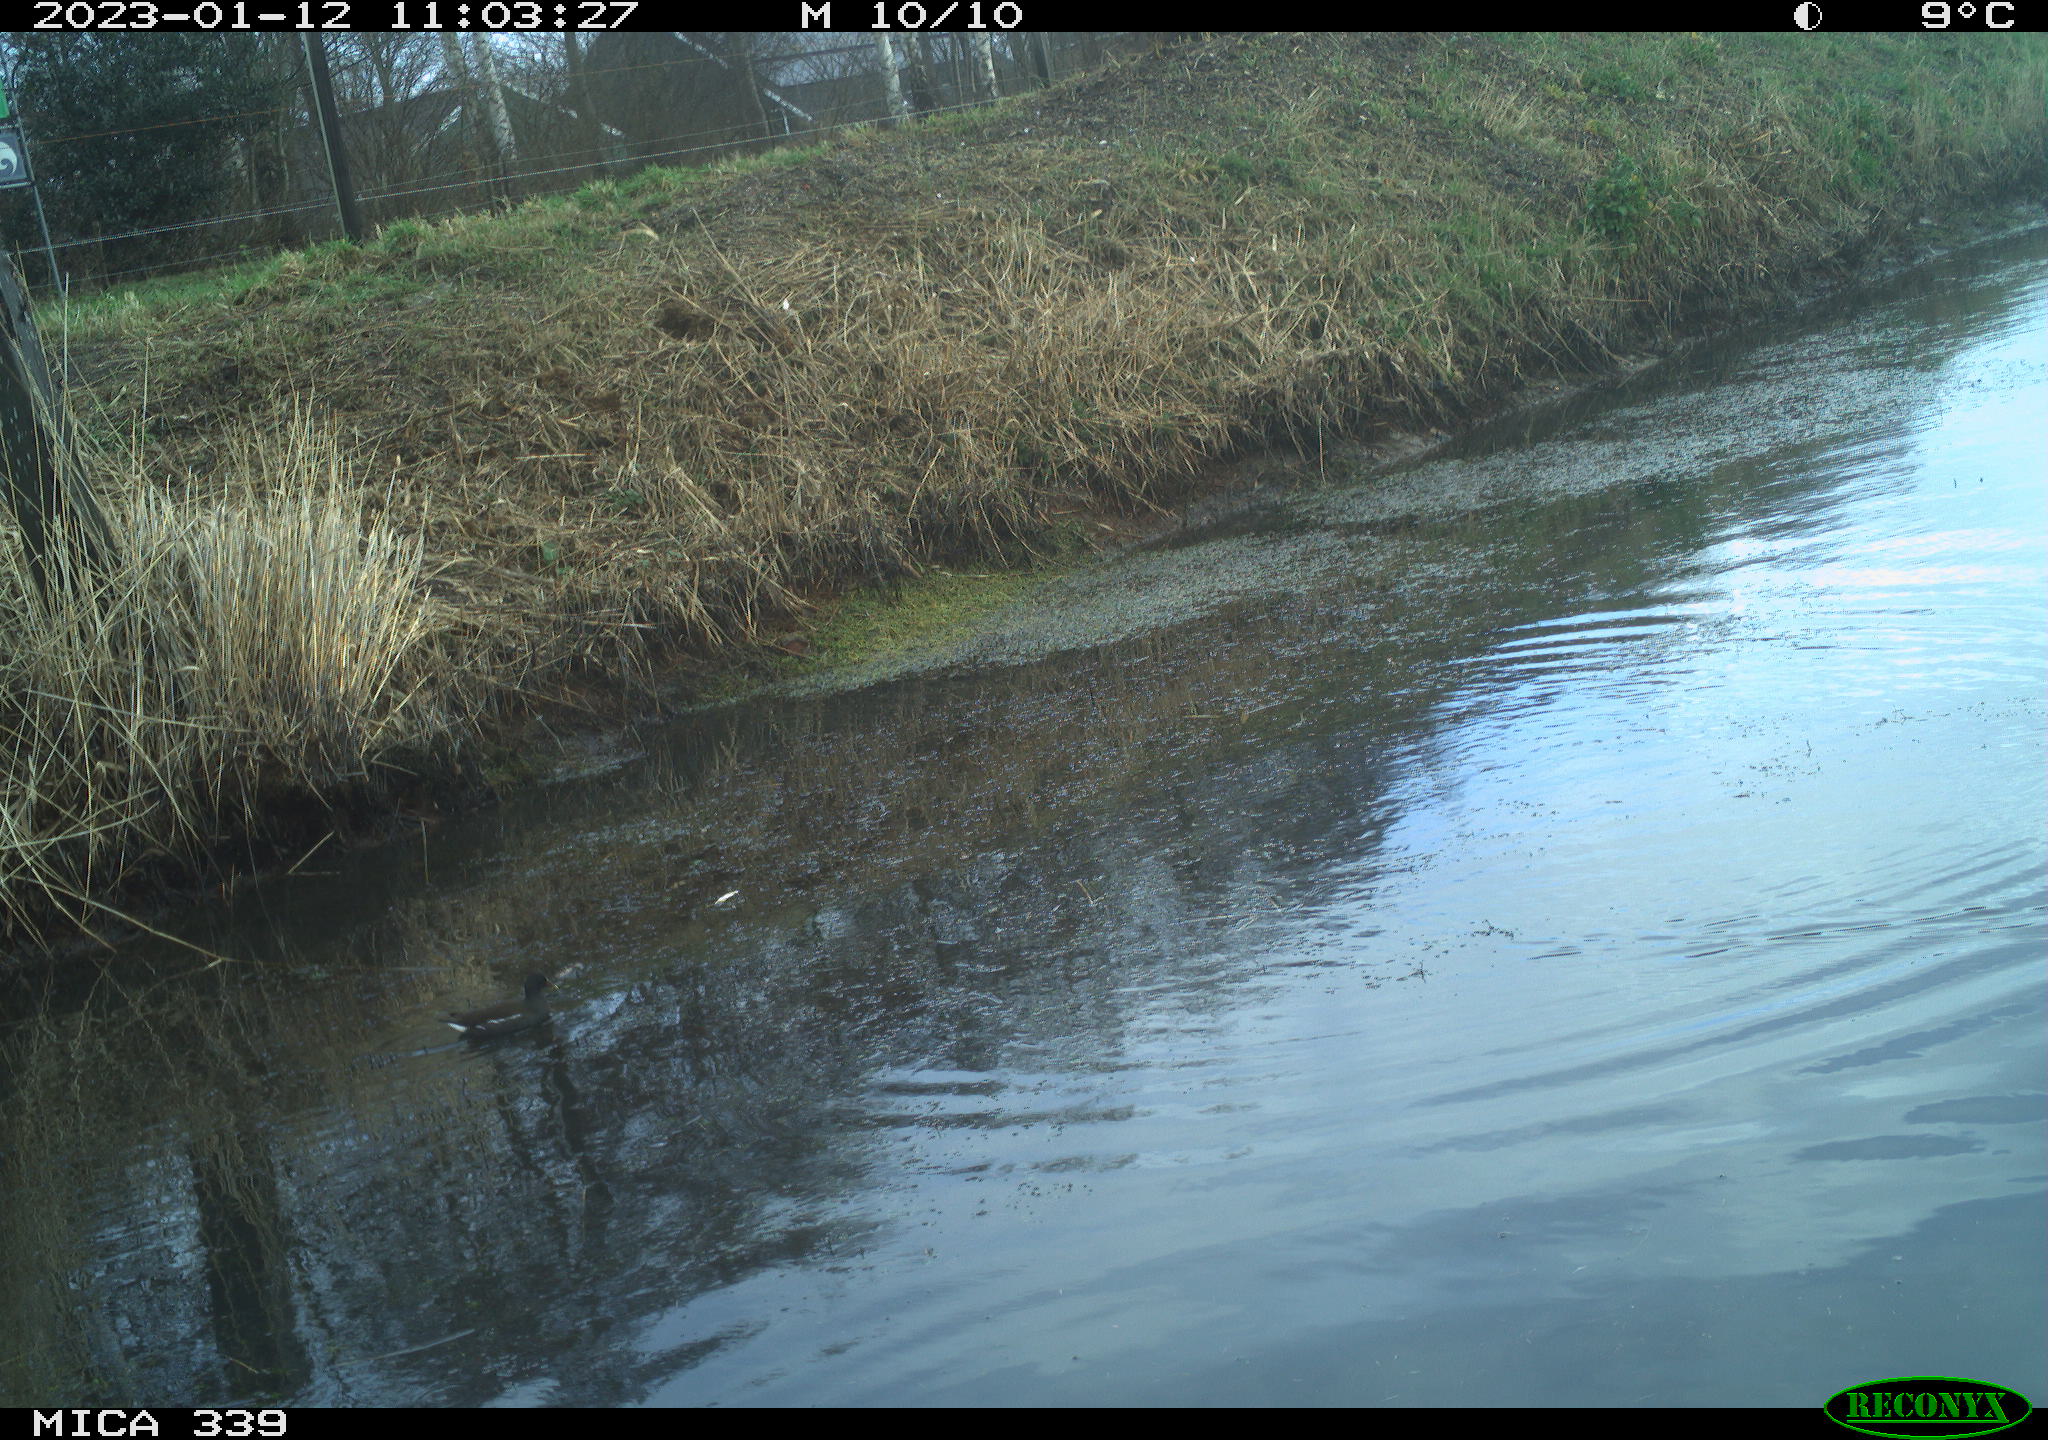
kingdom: Animalia
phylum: Chordata
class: Aves
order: Gruiformes
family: Rallidae
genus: Gallinula
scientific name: Gallinula chloropus
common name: Common moorhen
